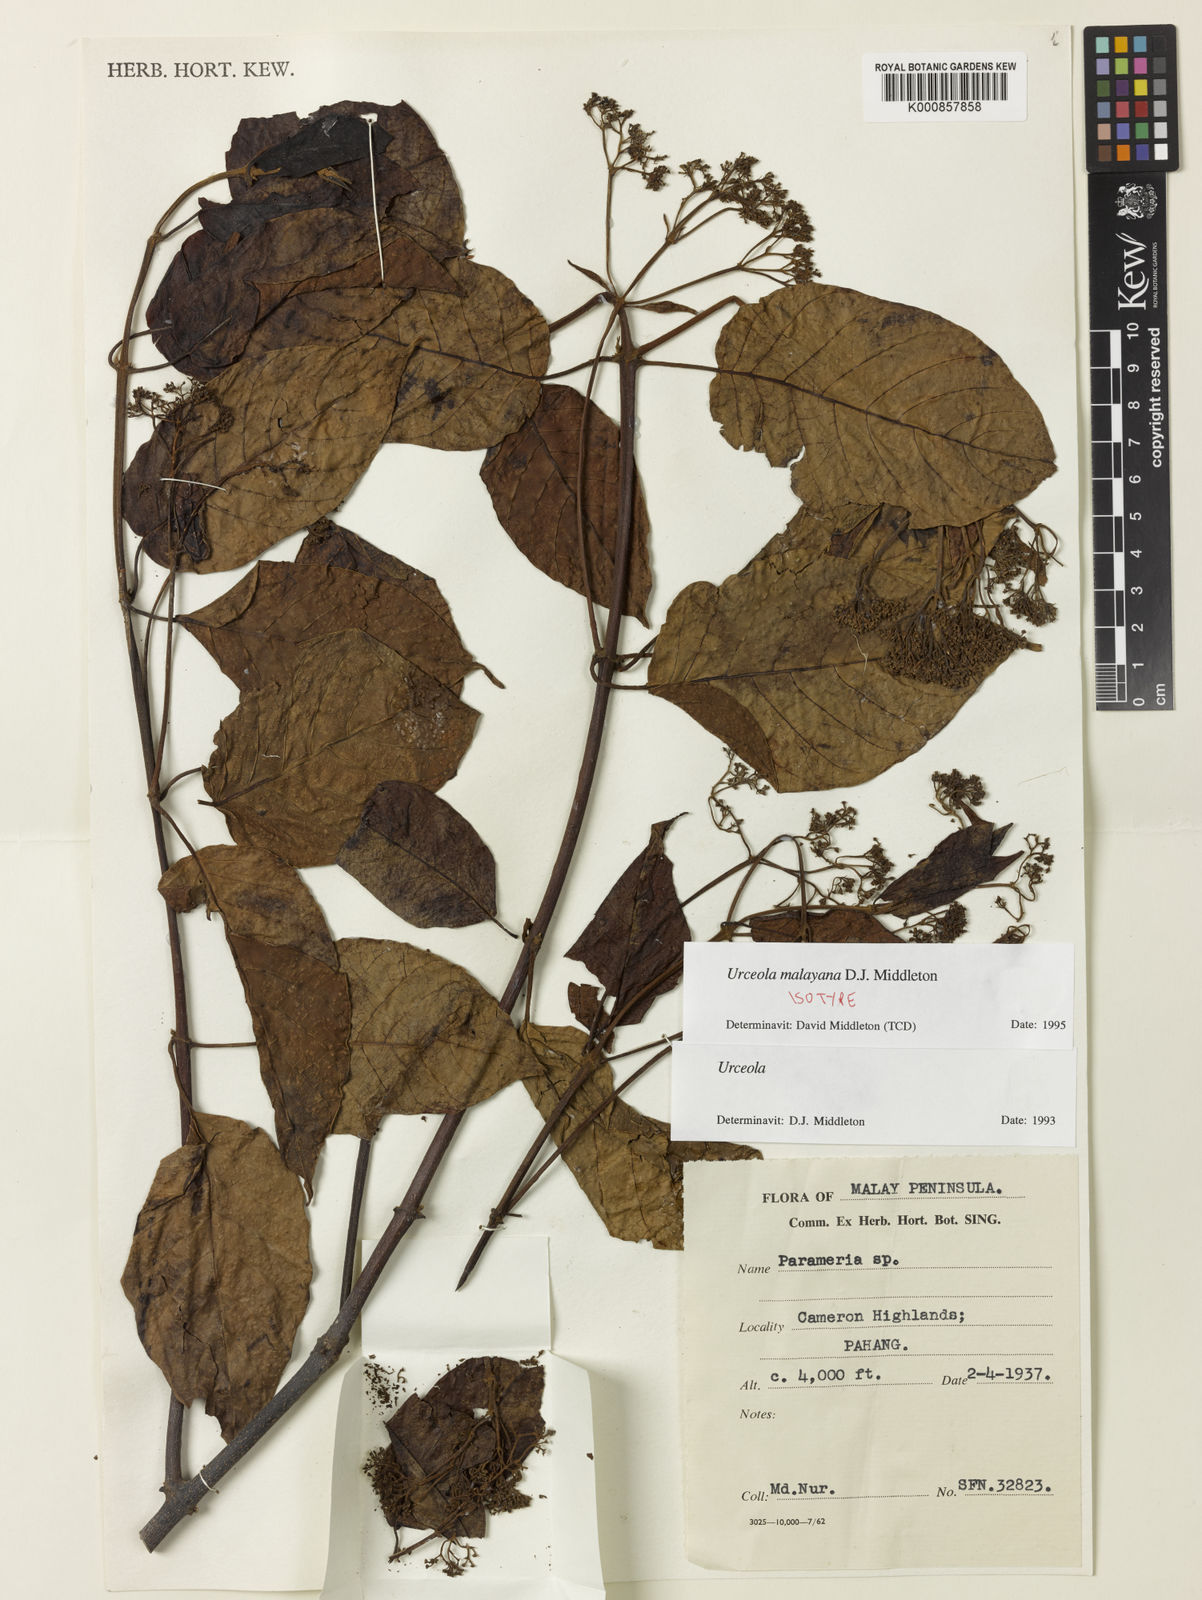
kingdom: Plantae
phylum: Tracheophyta
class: Magnoliopsida
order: Gentianales
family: Apocynaceae
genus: Urceola
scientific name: Urceola malayana
